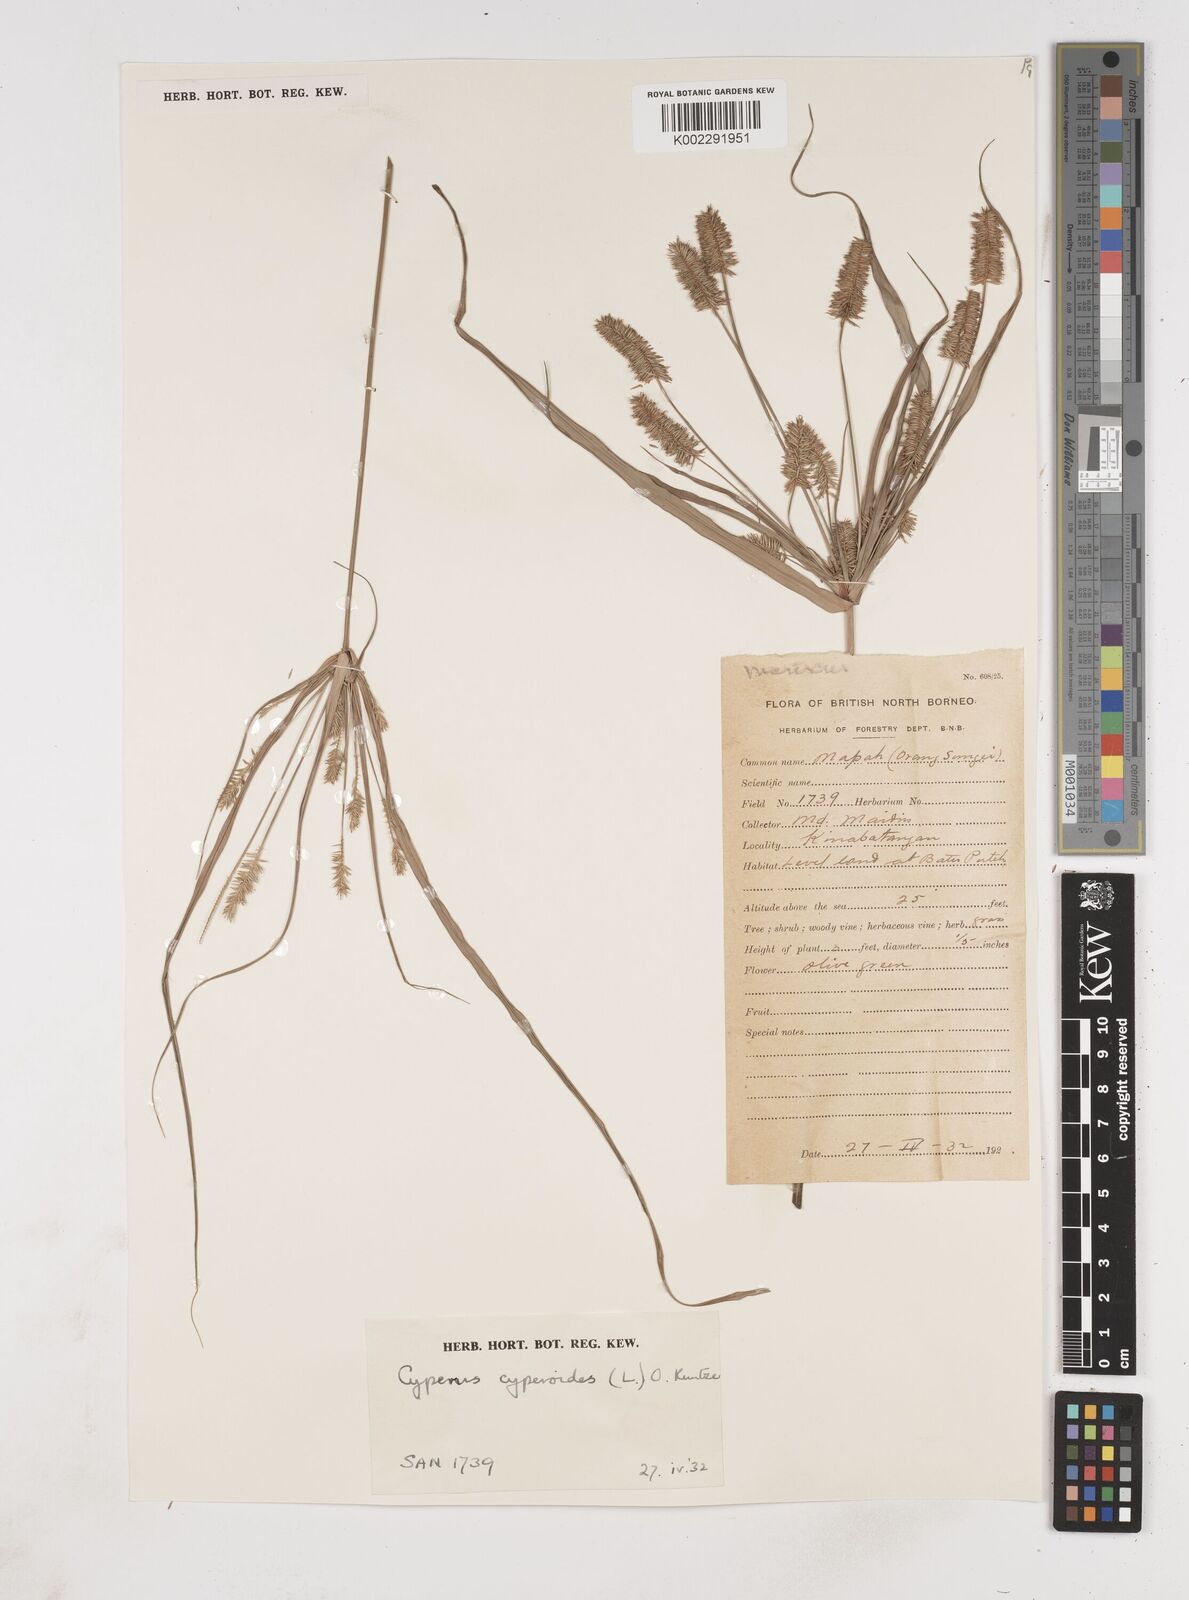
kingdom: Plantae
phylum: Tracheophyta
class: Liliopsida
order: Poales
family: Cyperaceae
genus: Cyperus
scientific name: Cyperus cyperoides
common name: Pacific island flat sedge
